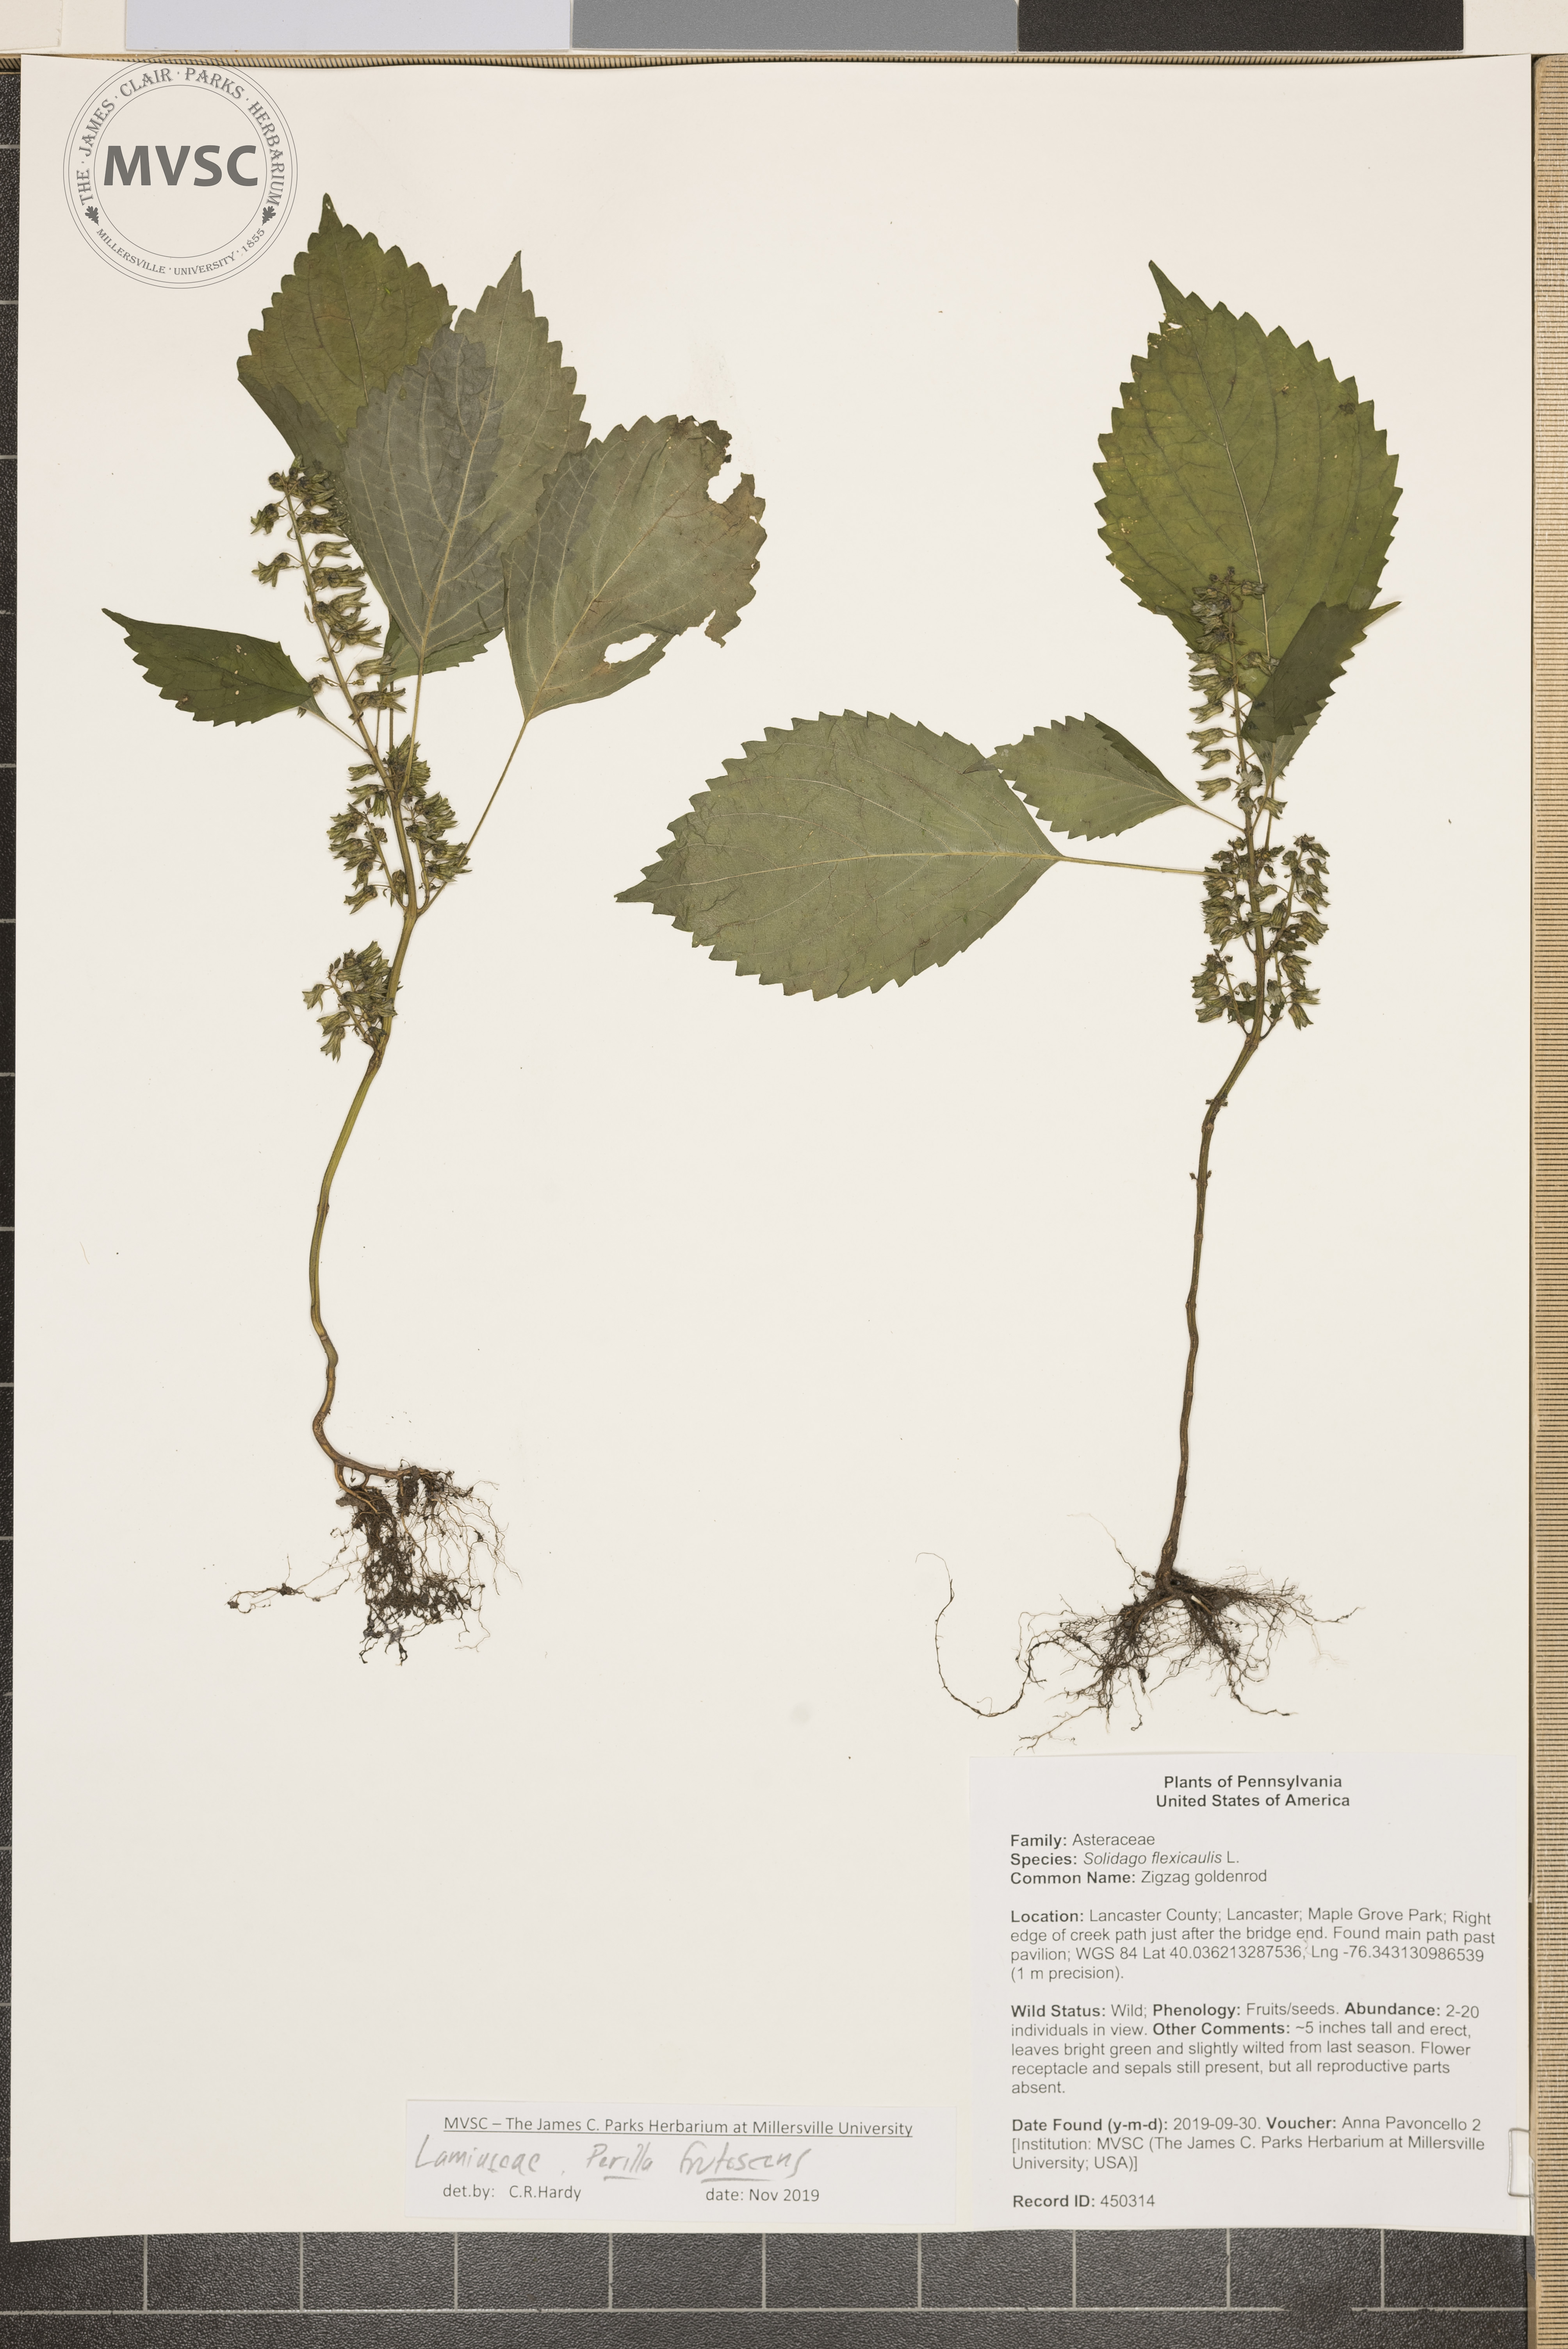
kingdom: Plantae
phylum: Tracheophyta
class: Magnoliopsida
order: Lamiales
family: Lamiaceae
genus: Perilla
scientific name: Perilla frutescens
